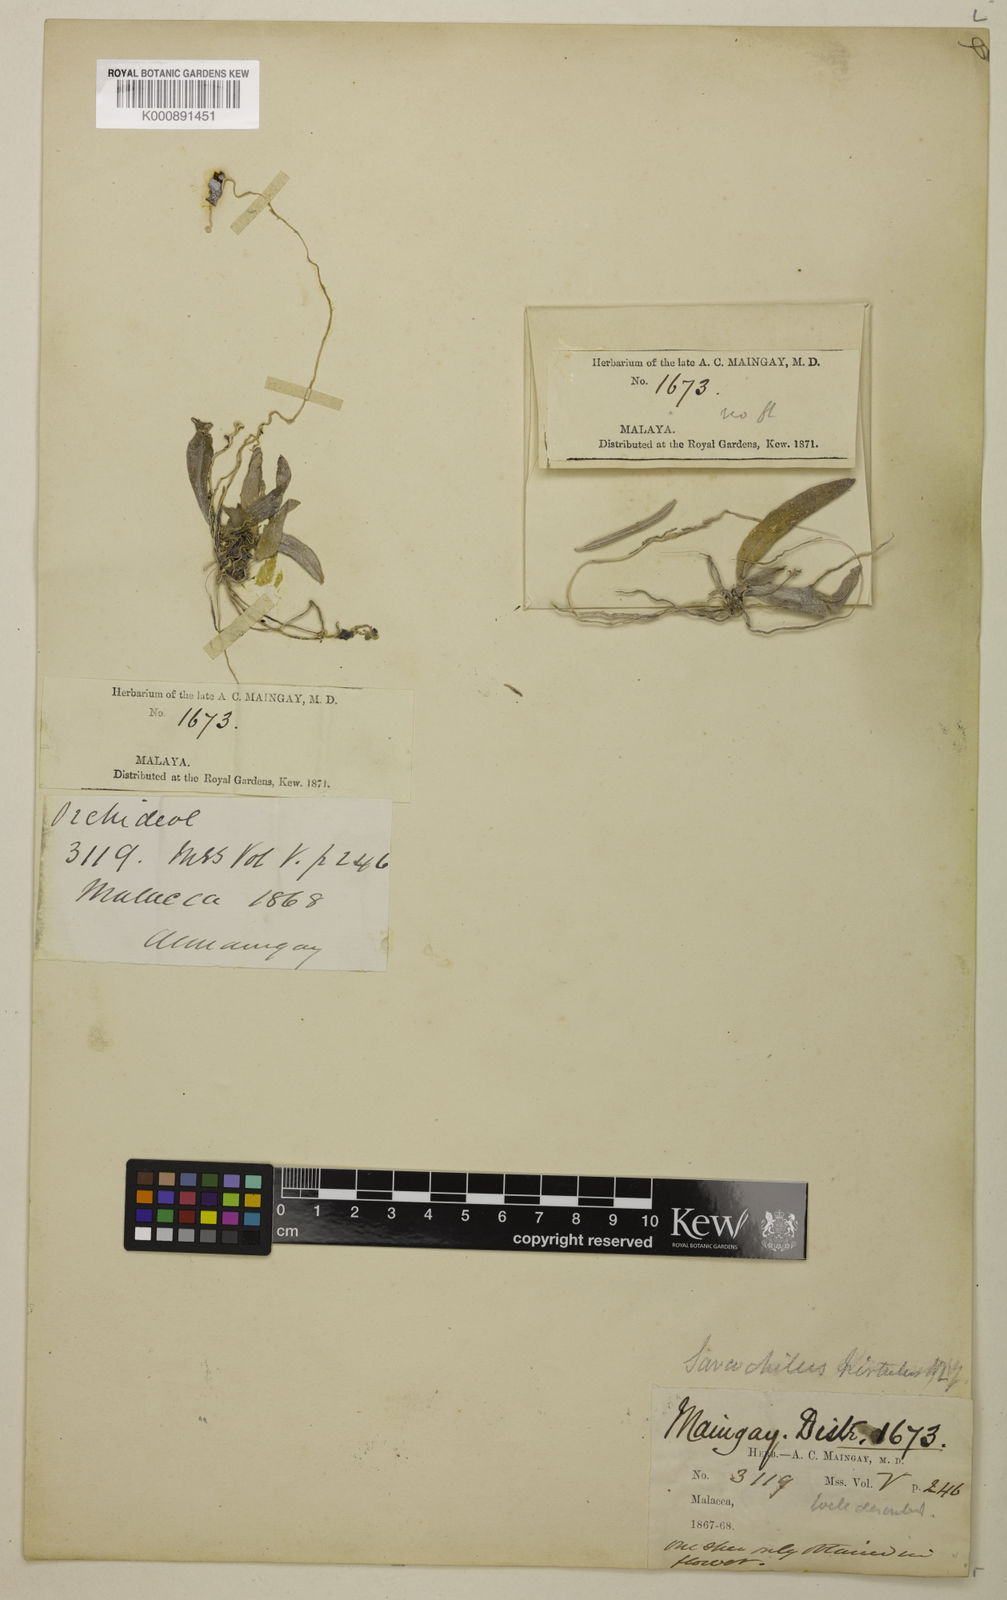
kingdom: Plantae
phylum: Tracheophyta
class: Liliopsida
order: Asparagales
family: Orchidaceae
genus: Grosourdya
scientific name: Grosourdya appendiculata
